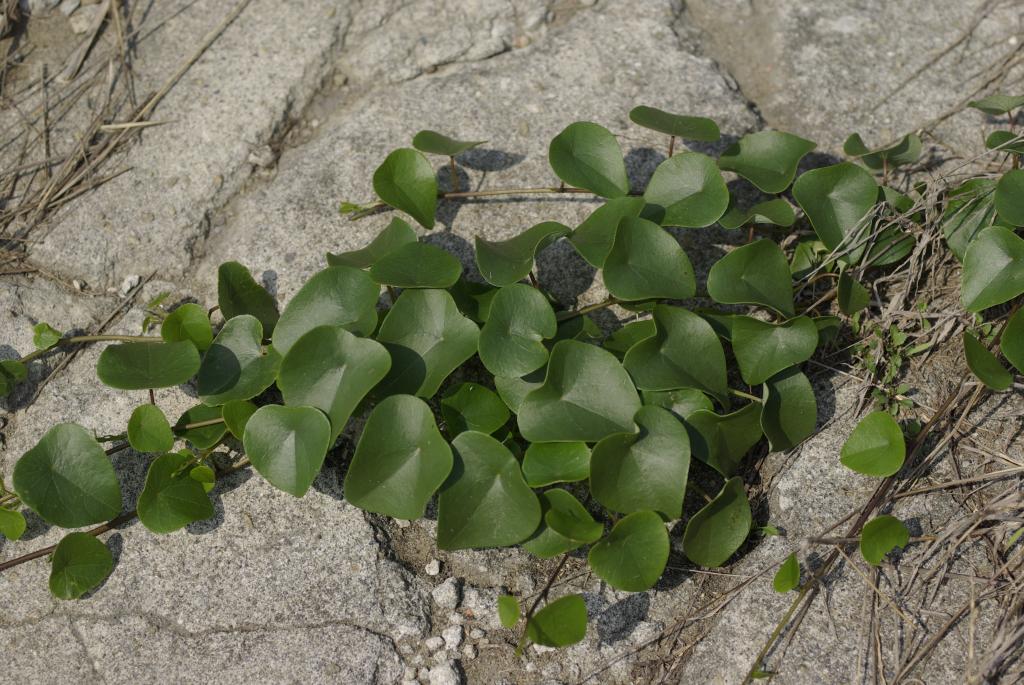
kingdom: Plantae
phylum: Tracheophyta
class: Magnoliopsida
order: Ranunculales
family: Menispermaceae
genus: Stephania
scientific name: Stephania japonica
